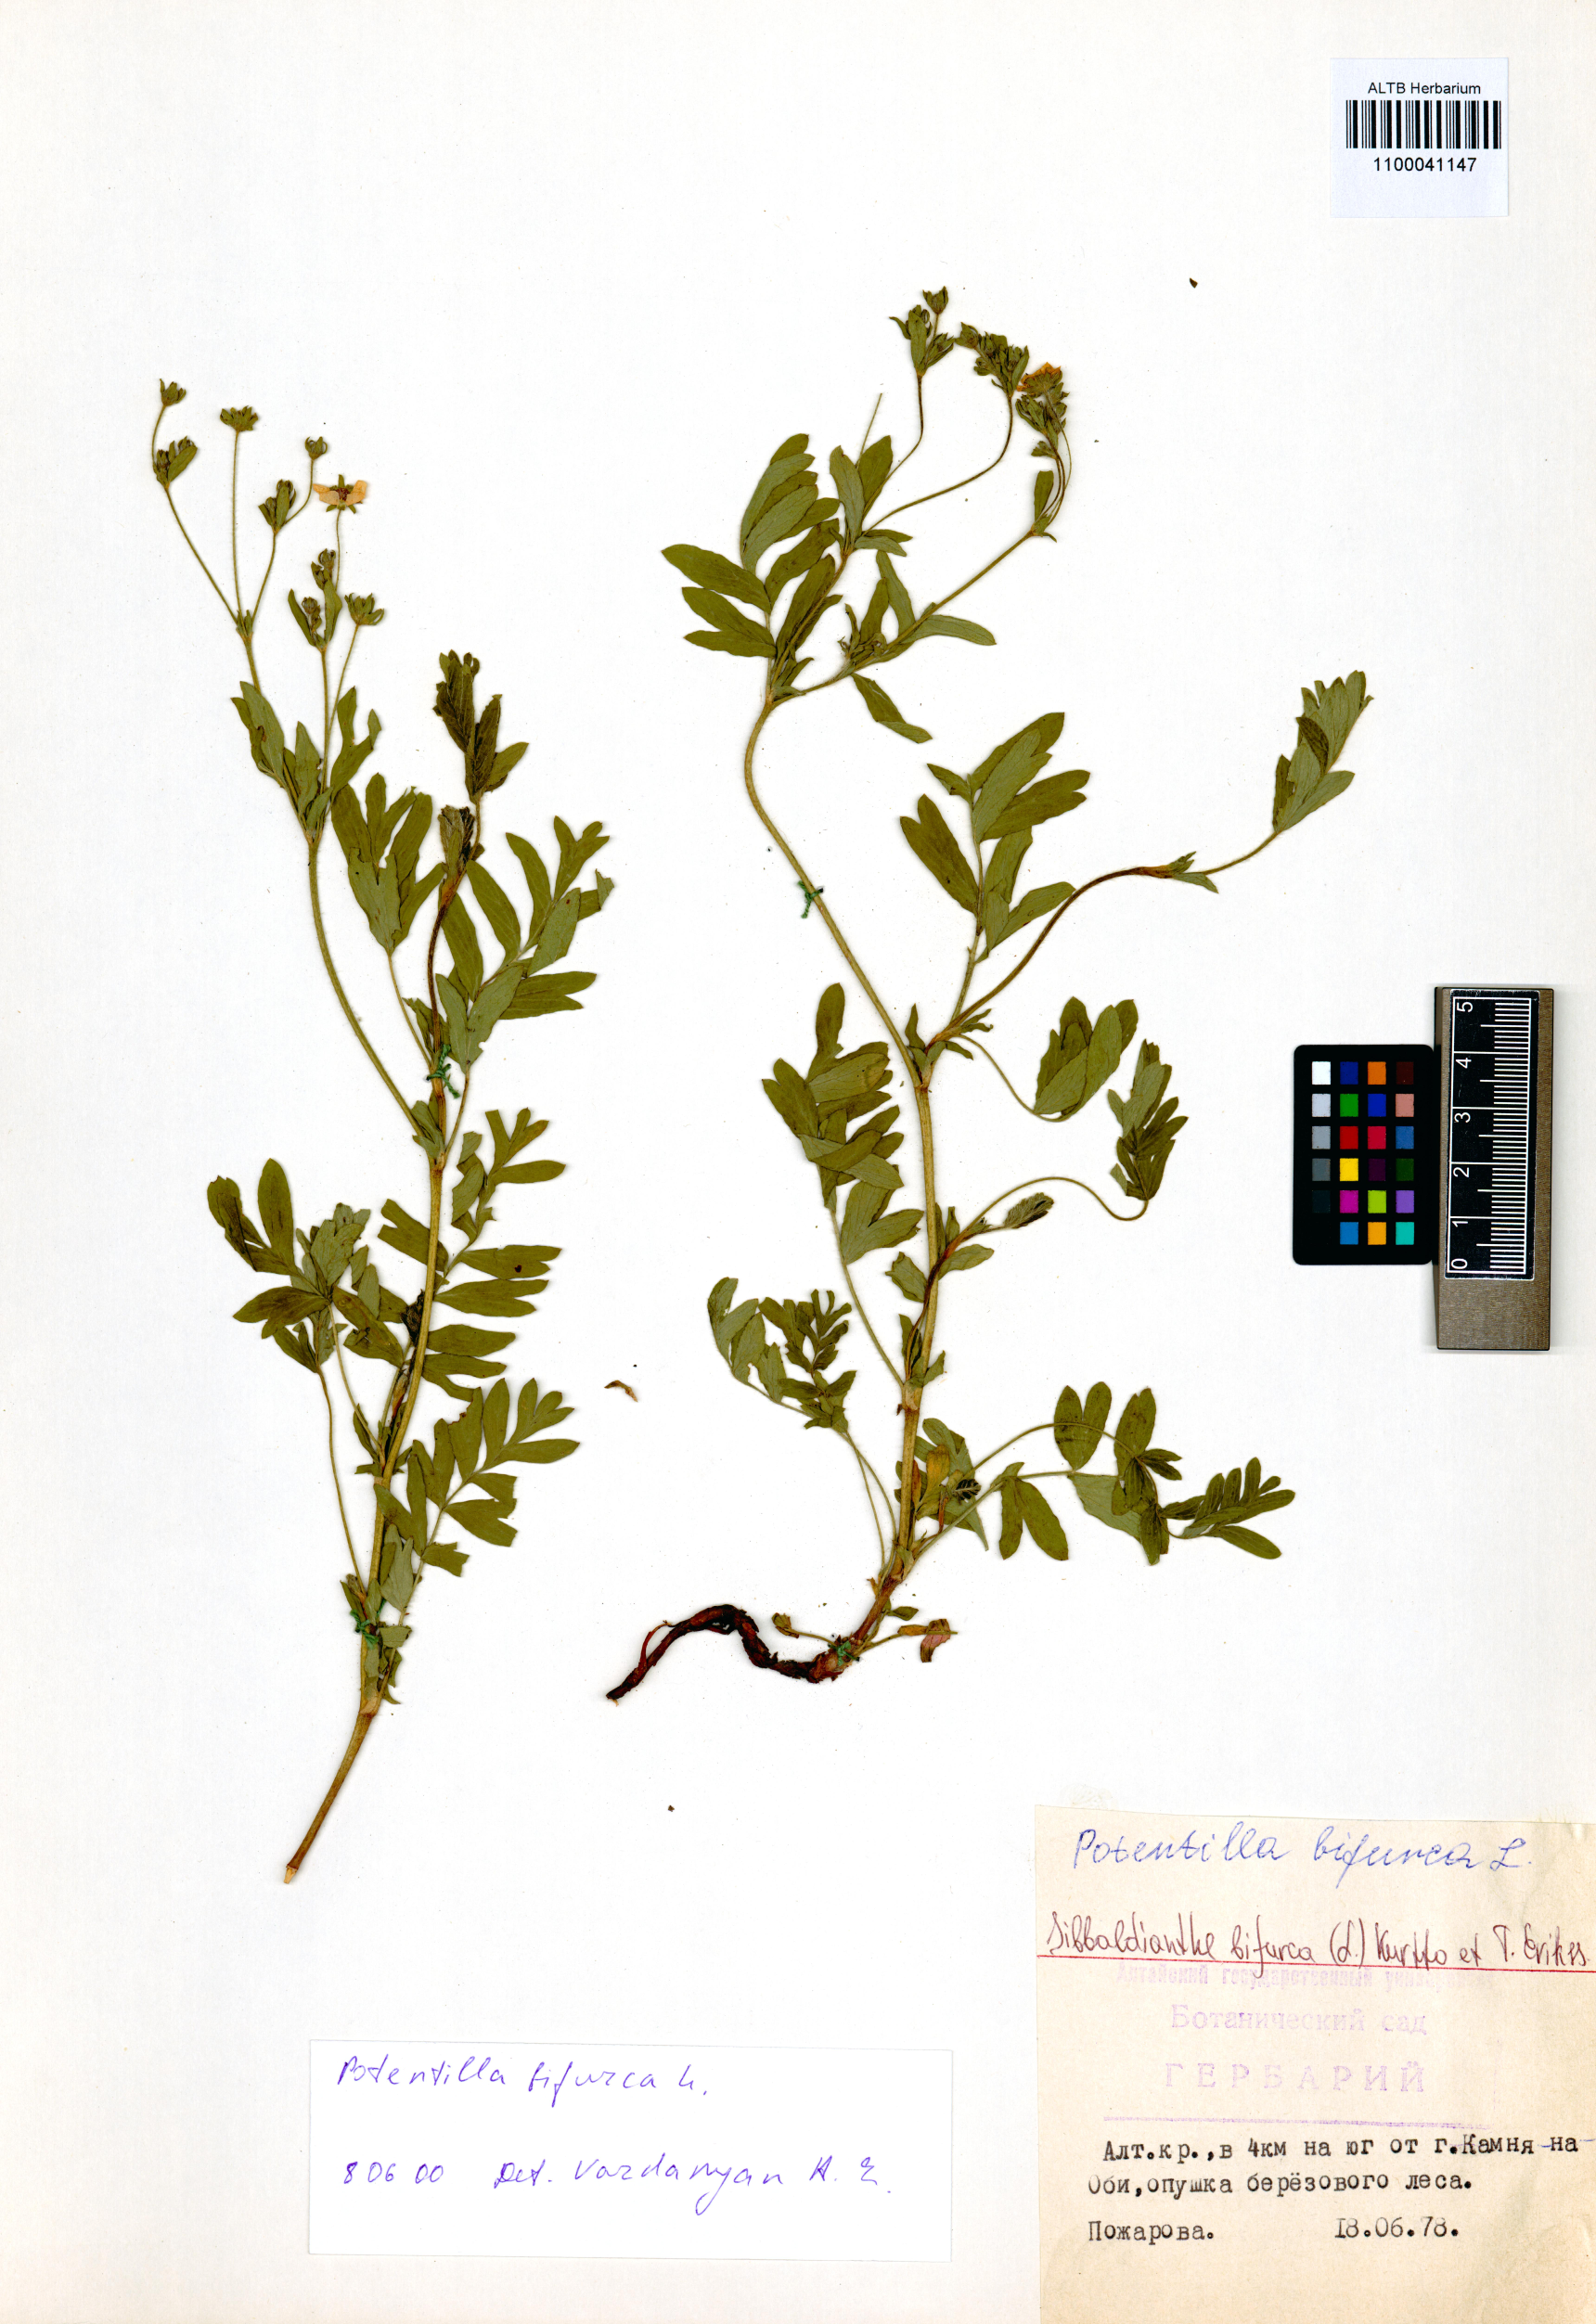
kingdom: Plantae
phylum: Tracheophyta
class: Magnoliopsida
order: Rosales
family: Rosaceae
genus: Sibbaldianthe
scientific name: Sibbaldianthe bifurca
